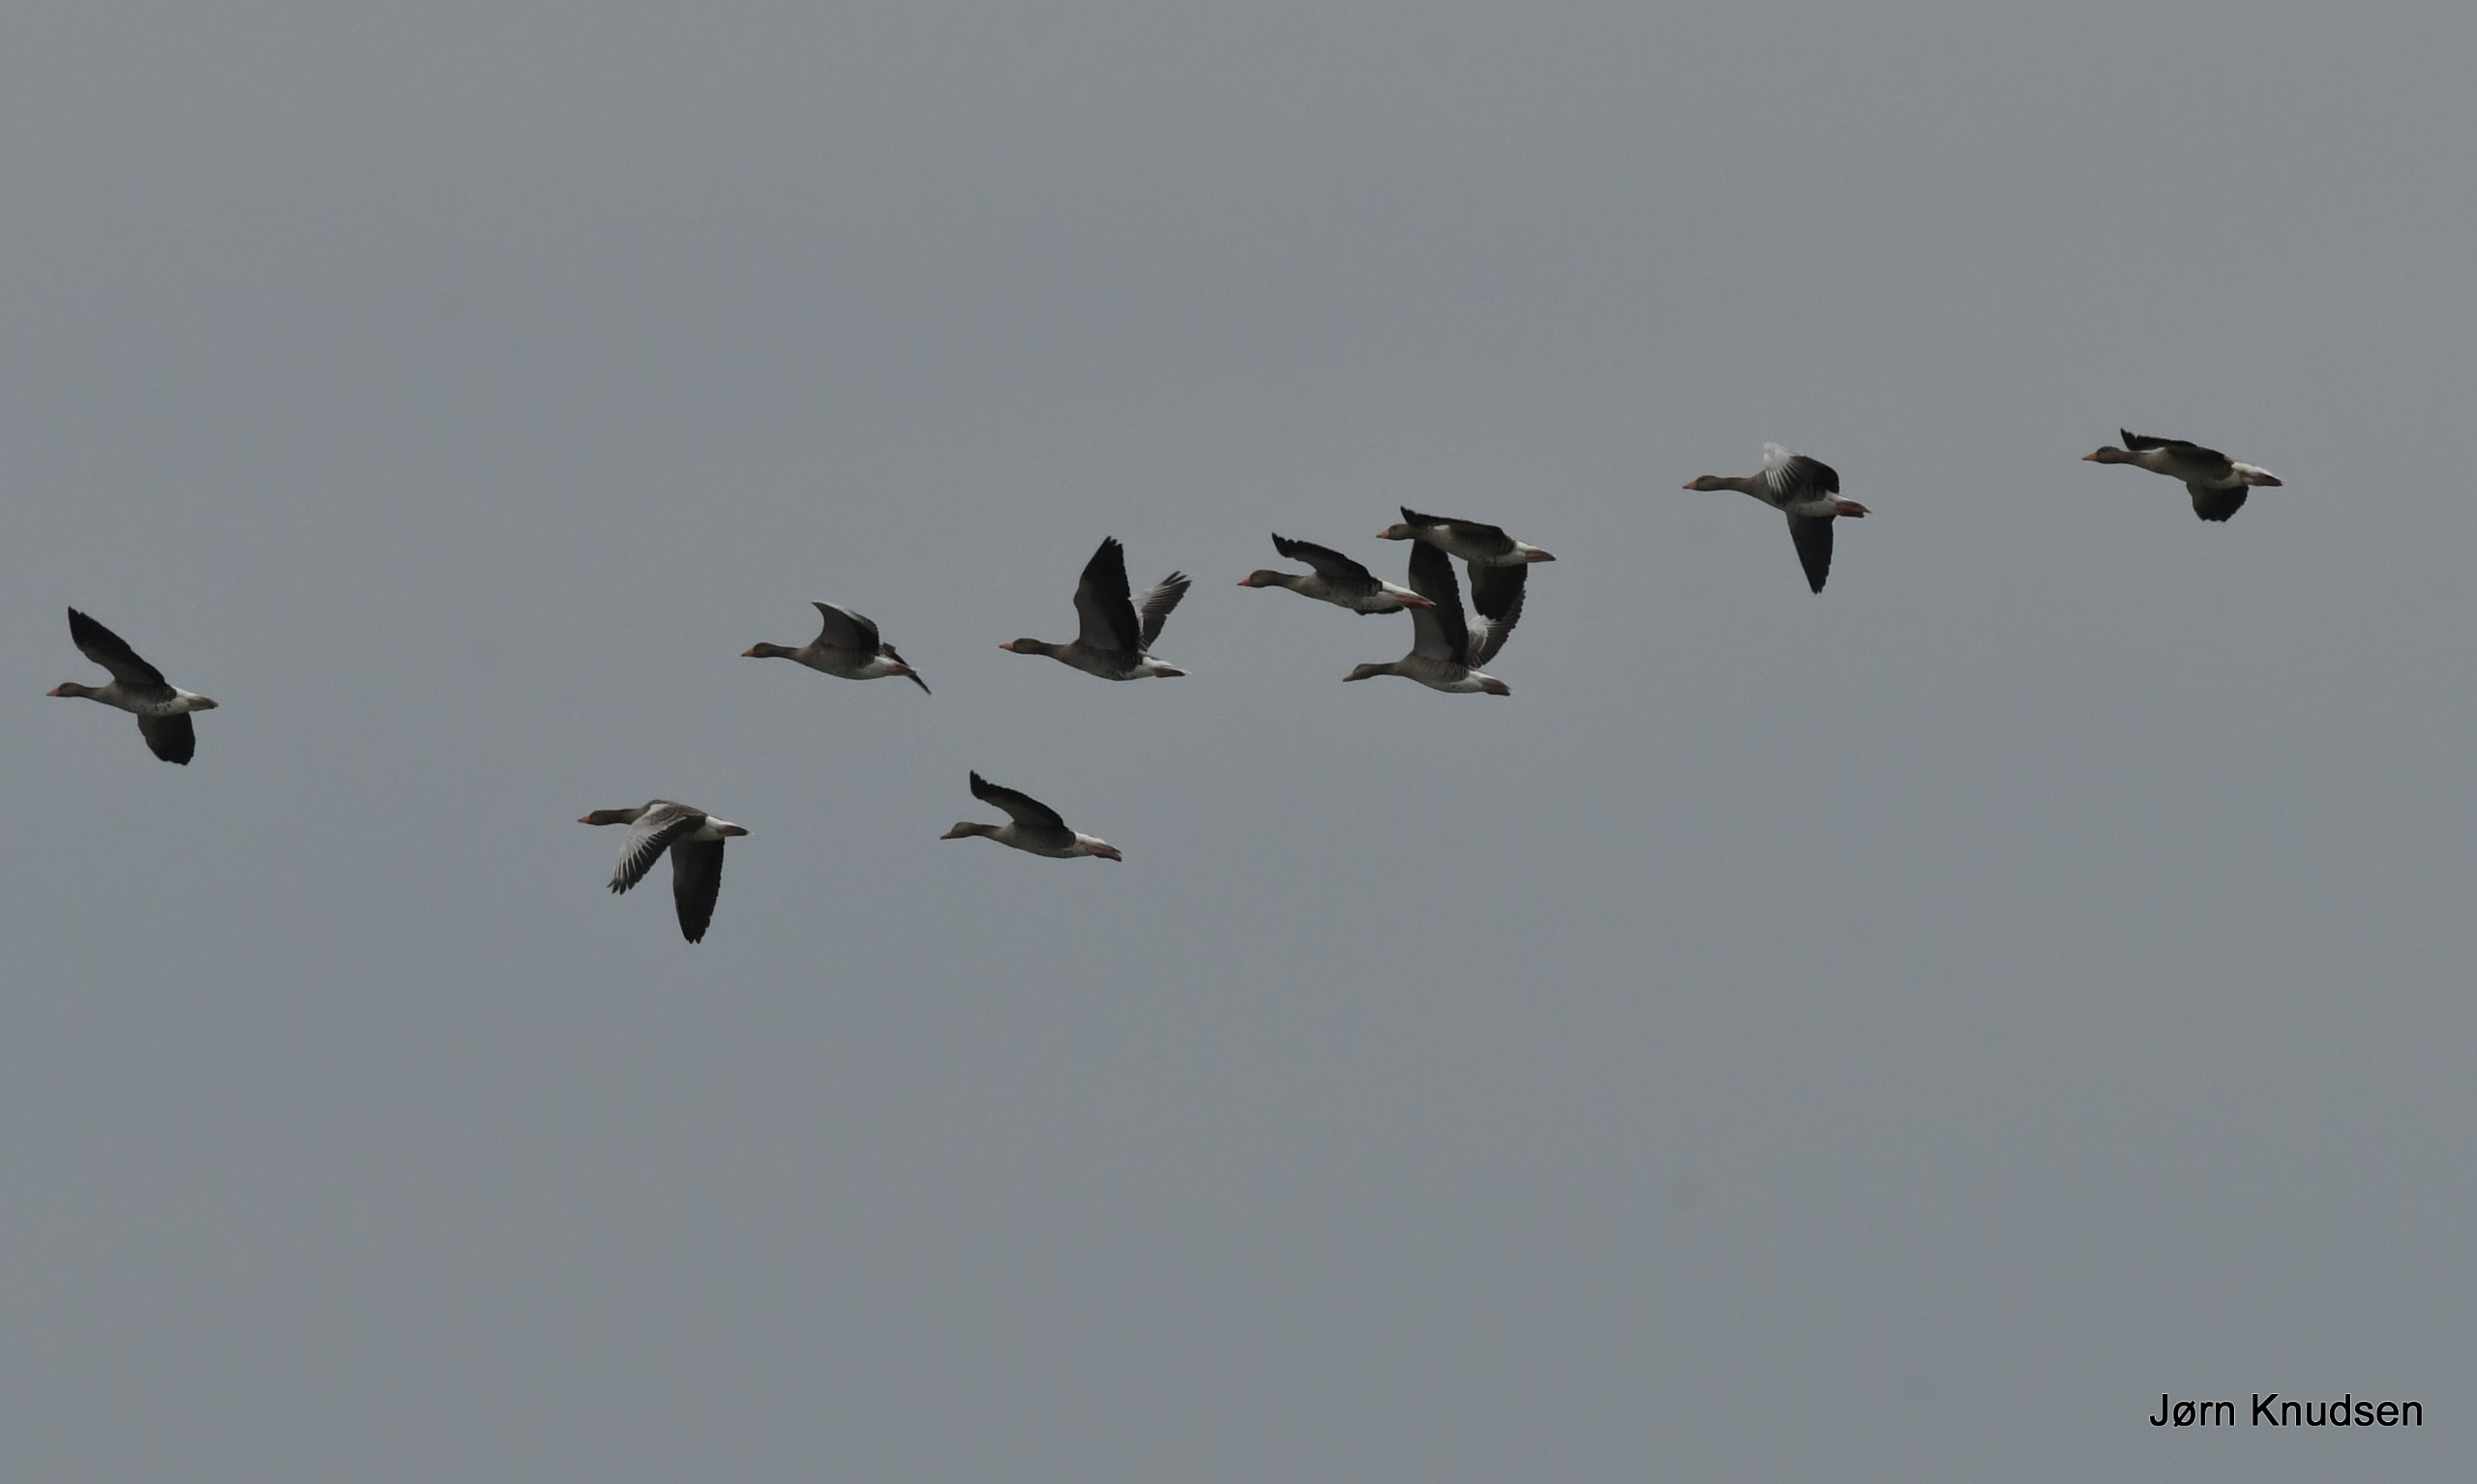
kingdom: Animalia
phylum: Chordata
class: Aves
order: Anseriformes
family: Anatidae
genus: Anser
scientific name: Anser anser
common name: Grågås
